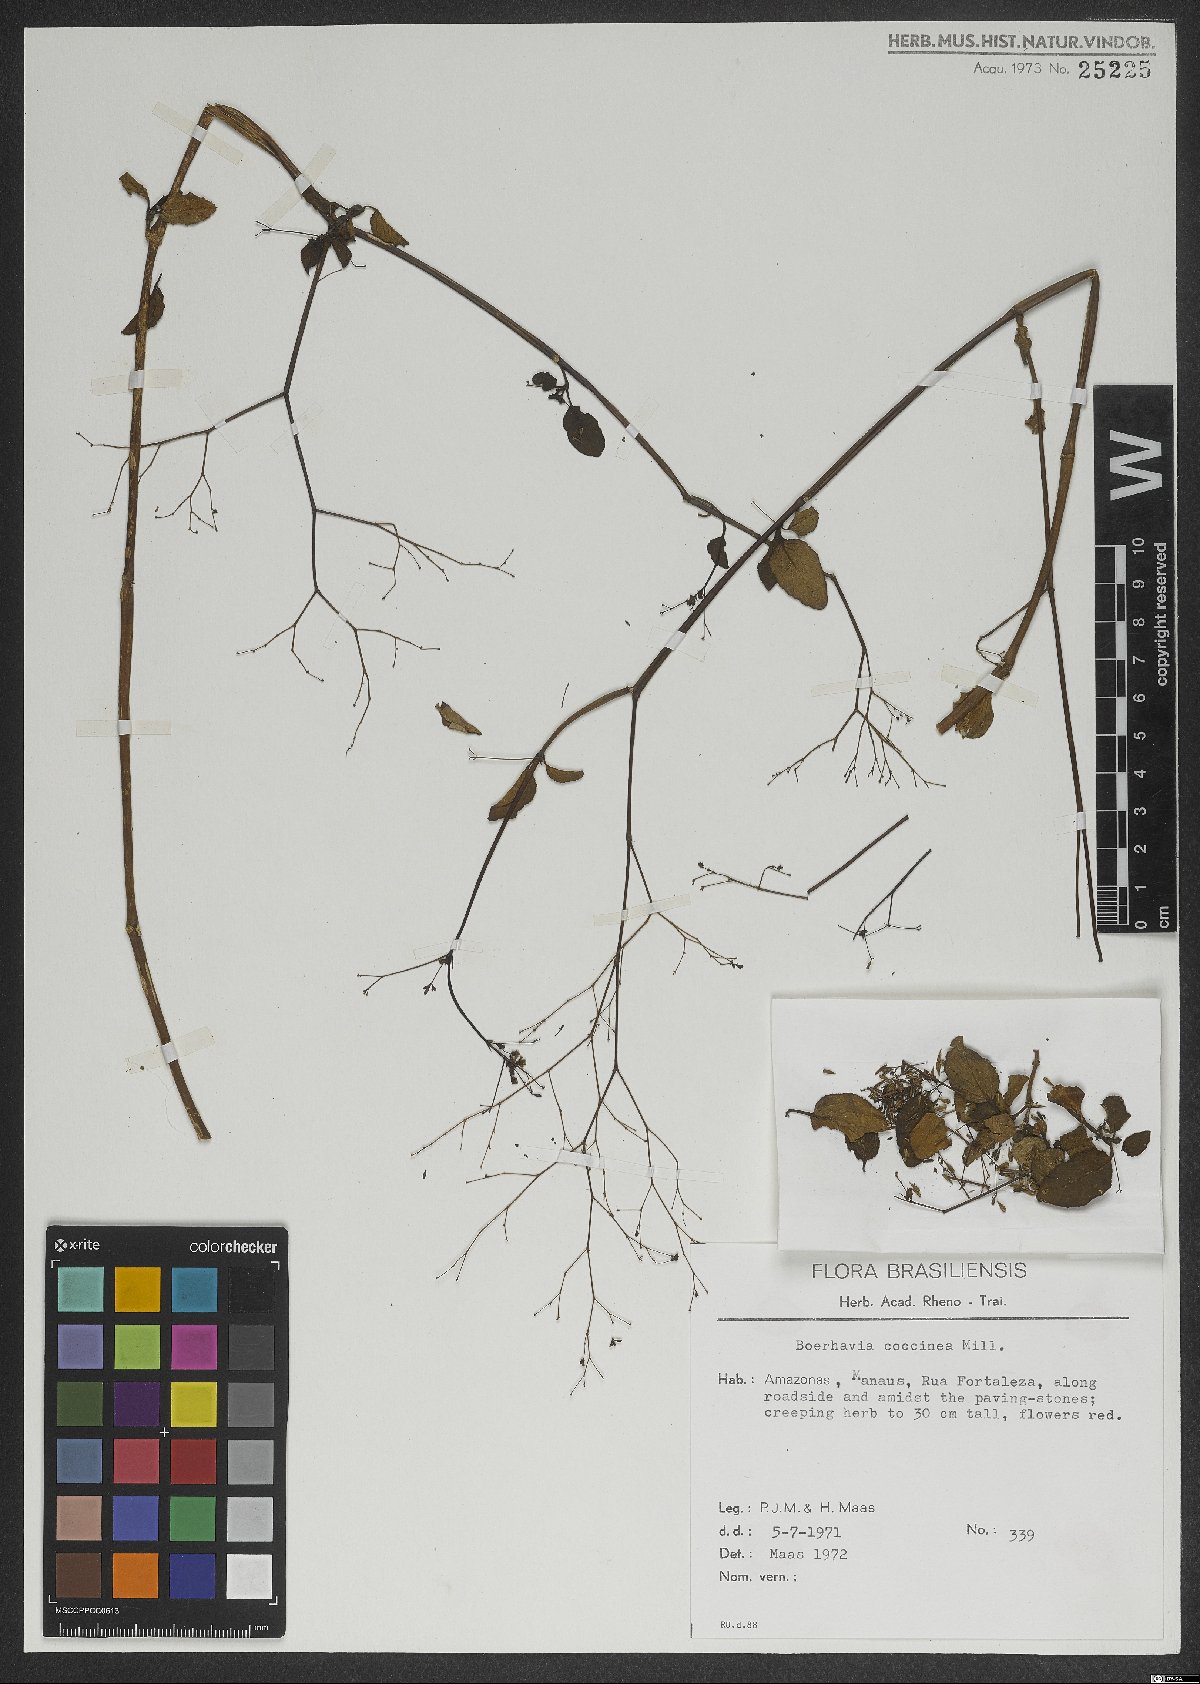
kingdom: Plantae
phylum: Tracheophyta
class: Magnoliopsida
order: Caryophyllales
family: Nyctaginaceae
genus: Boerhavia
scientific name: Boerhavia coccinea
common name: Scarlet spiderling
